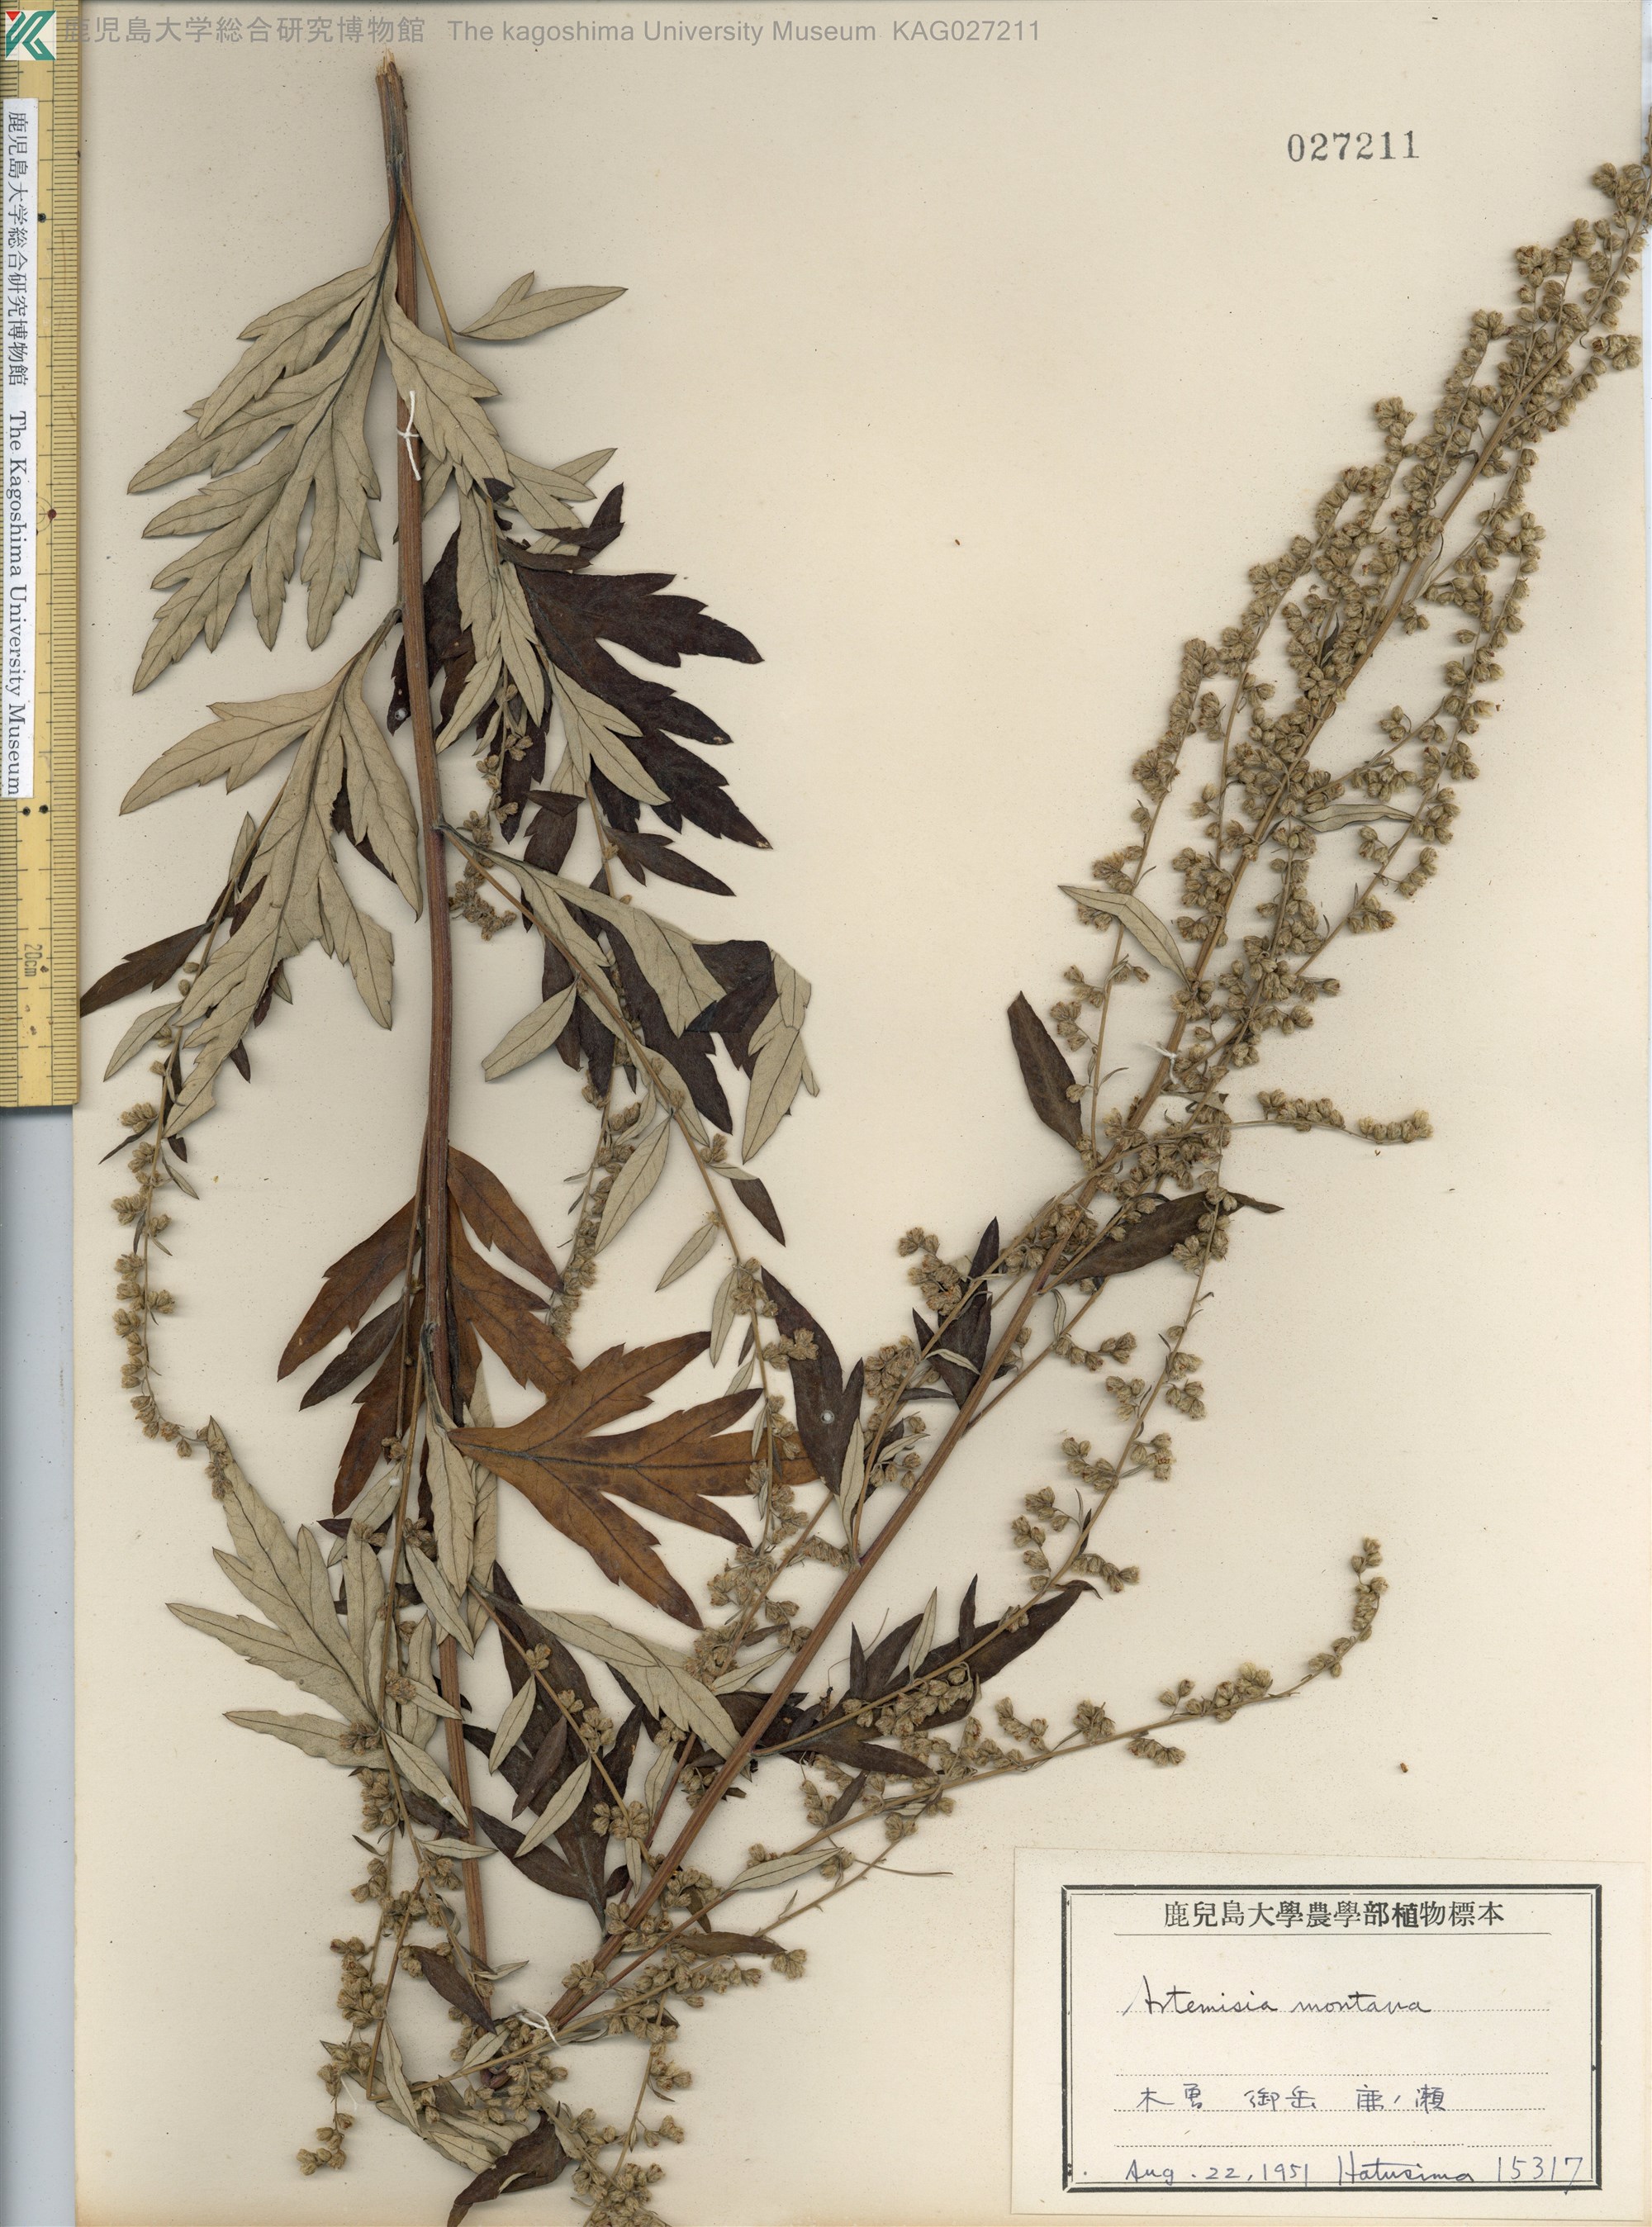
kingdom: Plantae
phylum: Tracheophyta
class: Magnoliopsida
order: Asterales
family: Asteraceae
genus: Artemisia
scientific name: Artemisia montana
